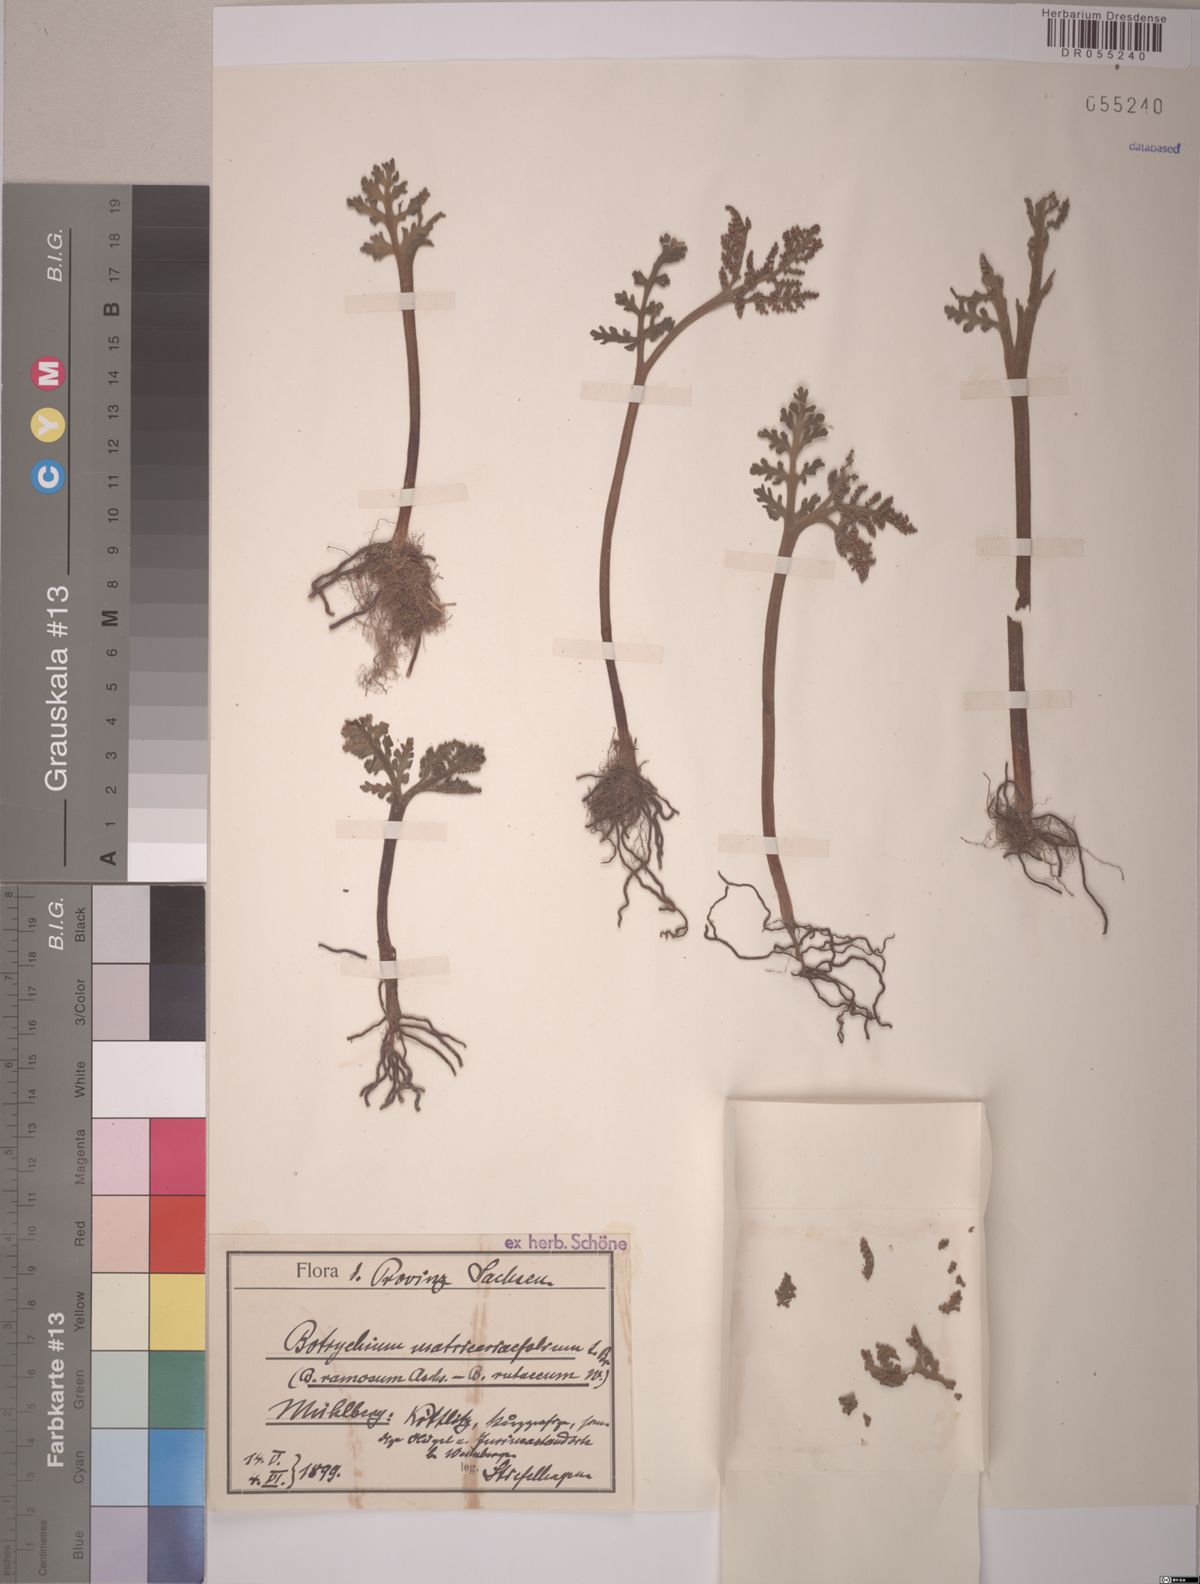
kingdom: Plantae
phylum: Tracheophyta
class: Polypodiopsida
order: Ophioglossales
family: Ophioglossaceae
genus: Botrychium
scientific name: Botrychium matricariifolium
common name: Branched moonwort
